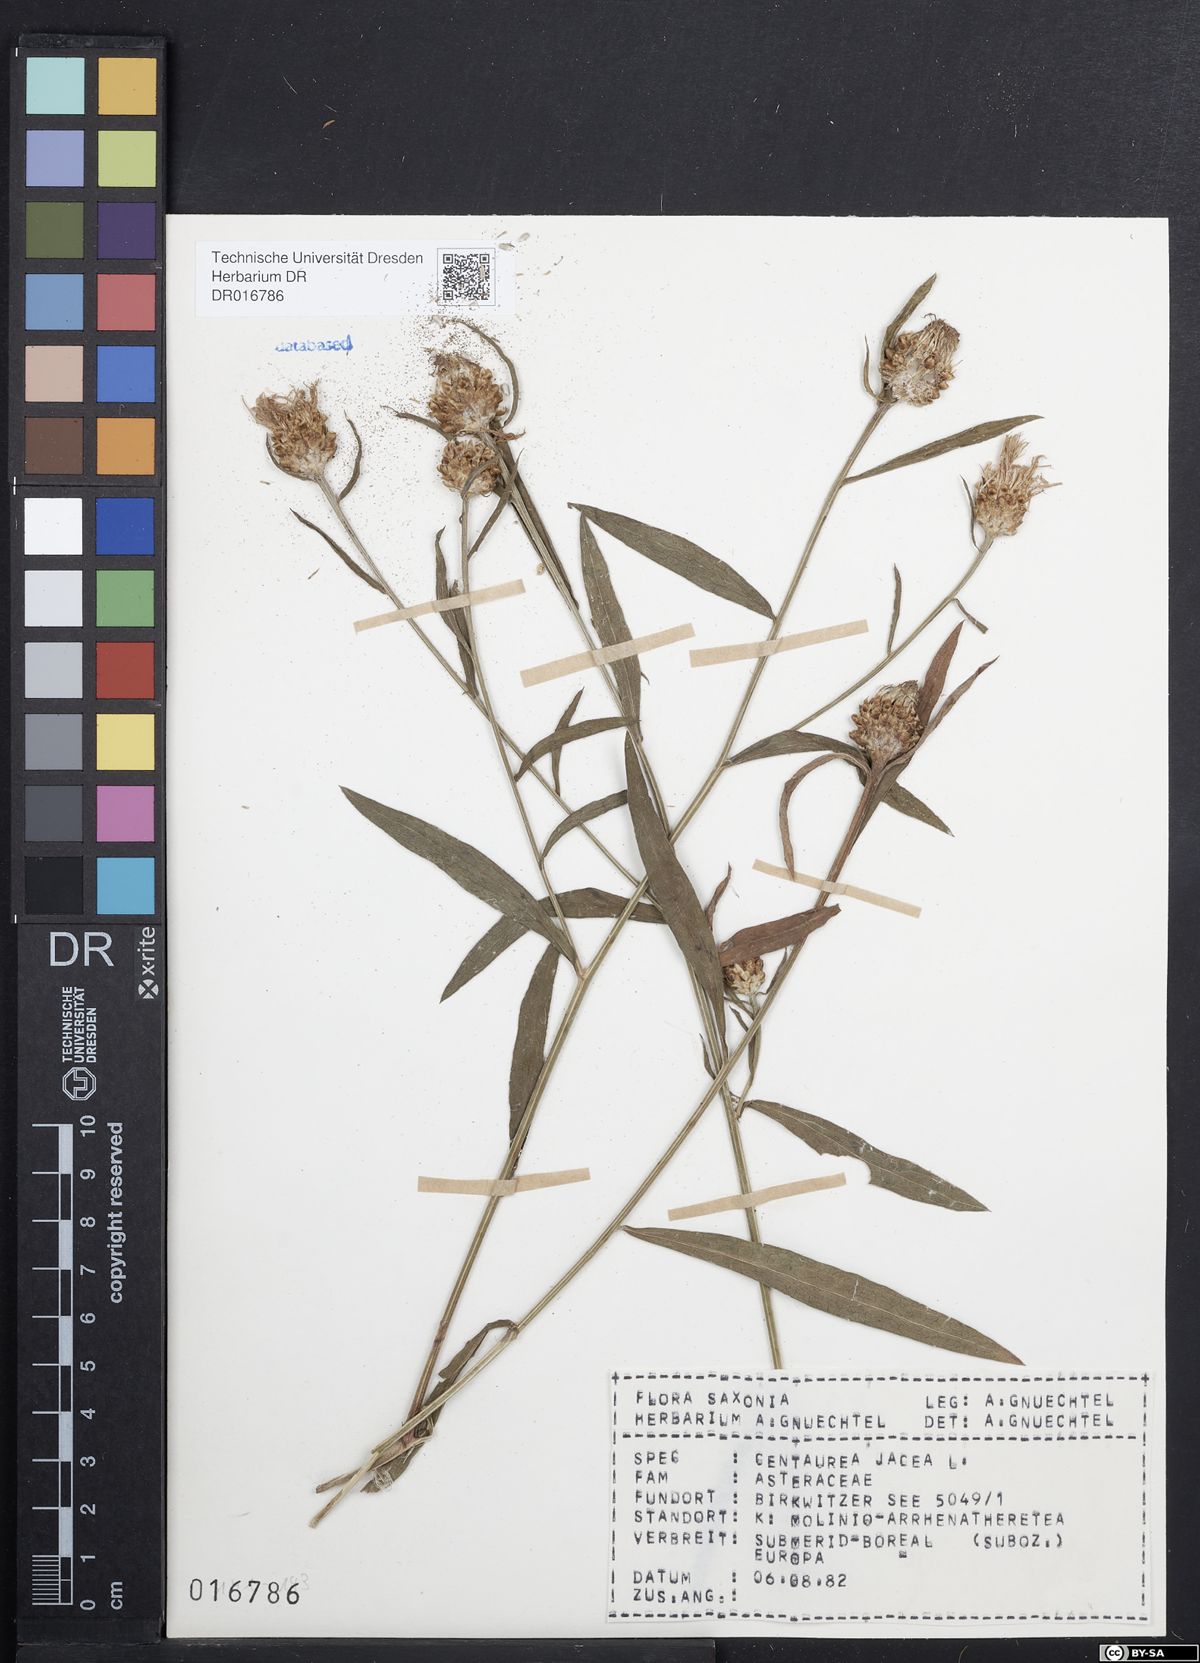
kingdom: Plantae
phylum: Tracheophyta
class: Magnoliopsida
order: Asterales
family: Asteraceae
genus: Centaurea
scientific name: Centaurea jacea
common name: Brown knapweed
